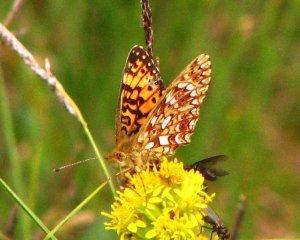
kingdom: Animalia
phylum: Arthropoda
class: Insecta
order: Lepidoptera
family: Nymphalidae
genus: Boloria
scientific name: Boloria selene
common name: Silver-bordered Fritillary
